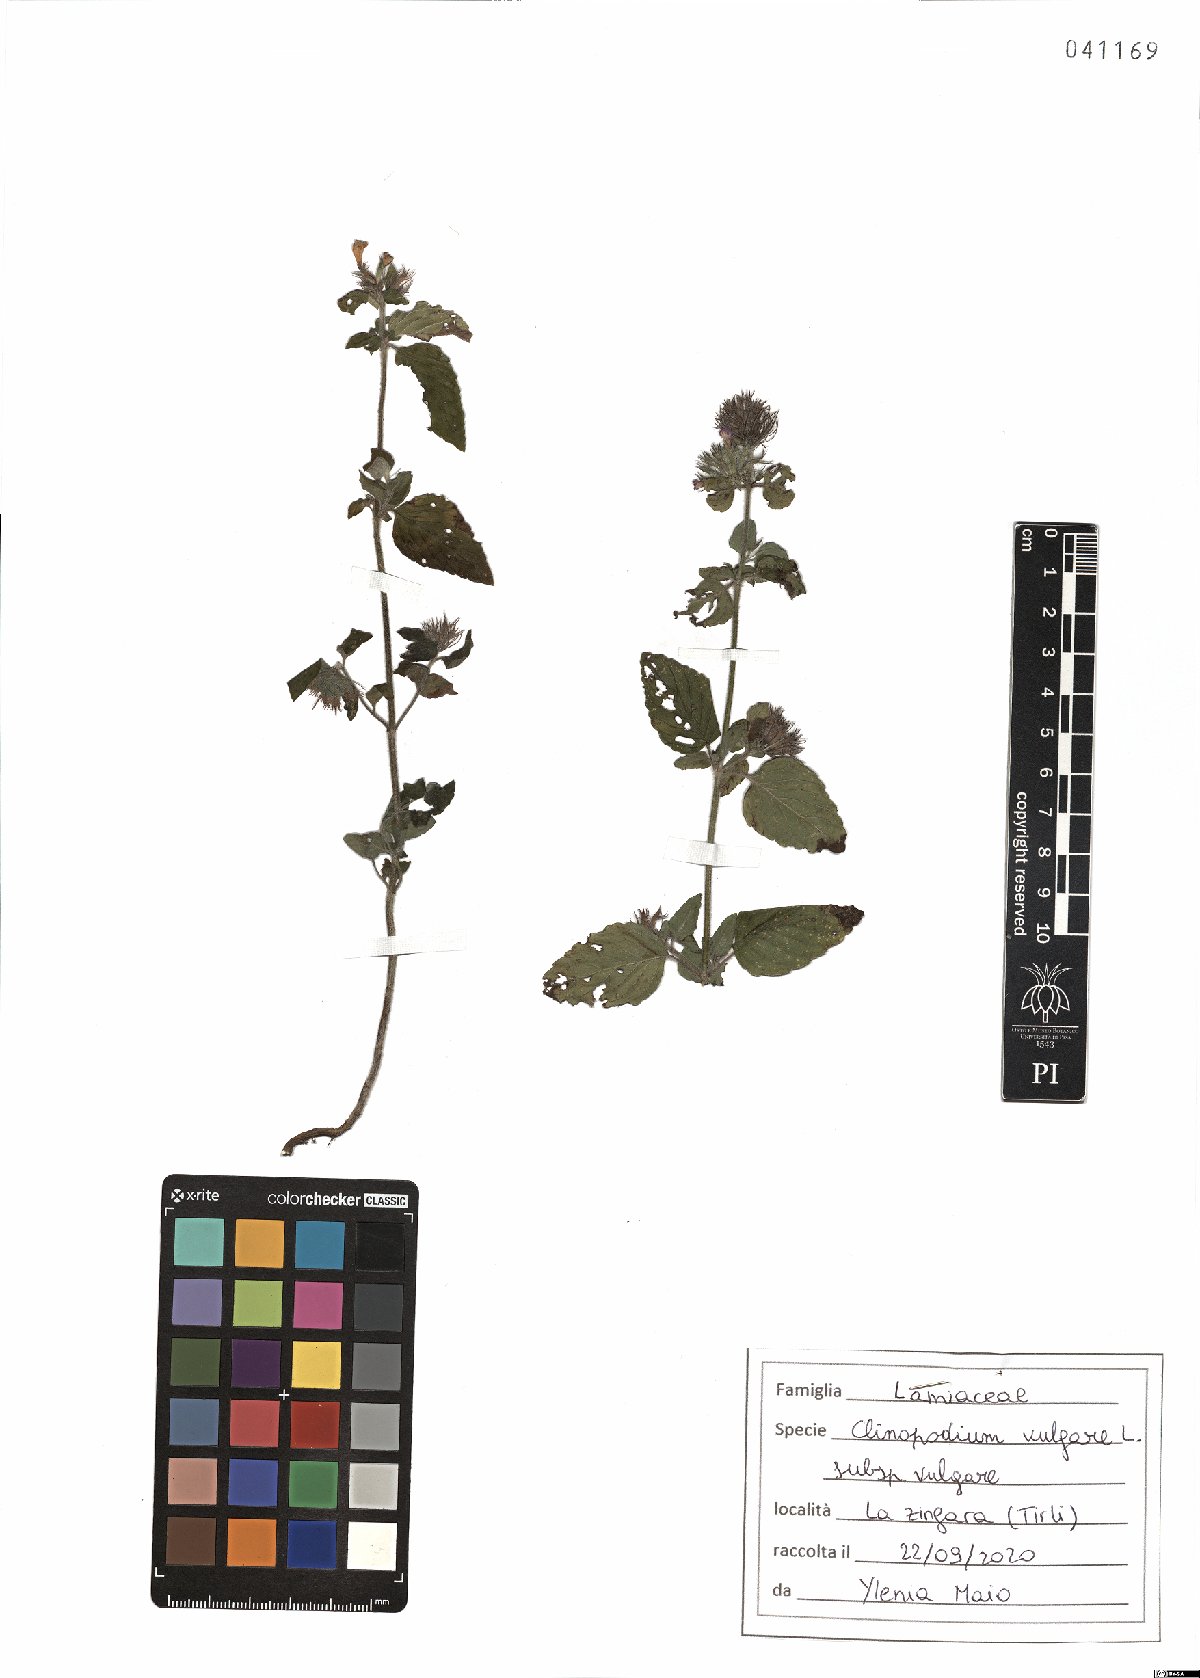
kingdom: Plantae
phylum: Tracheophyta
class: Magnoliopsida
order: Lamiales
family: Lamiaceae
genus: Clinopodium
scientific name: Clinopodium vulgare
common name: Wild basil
